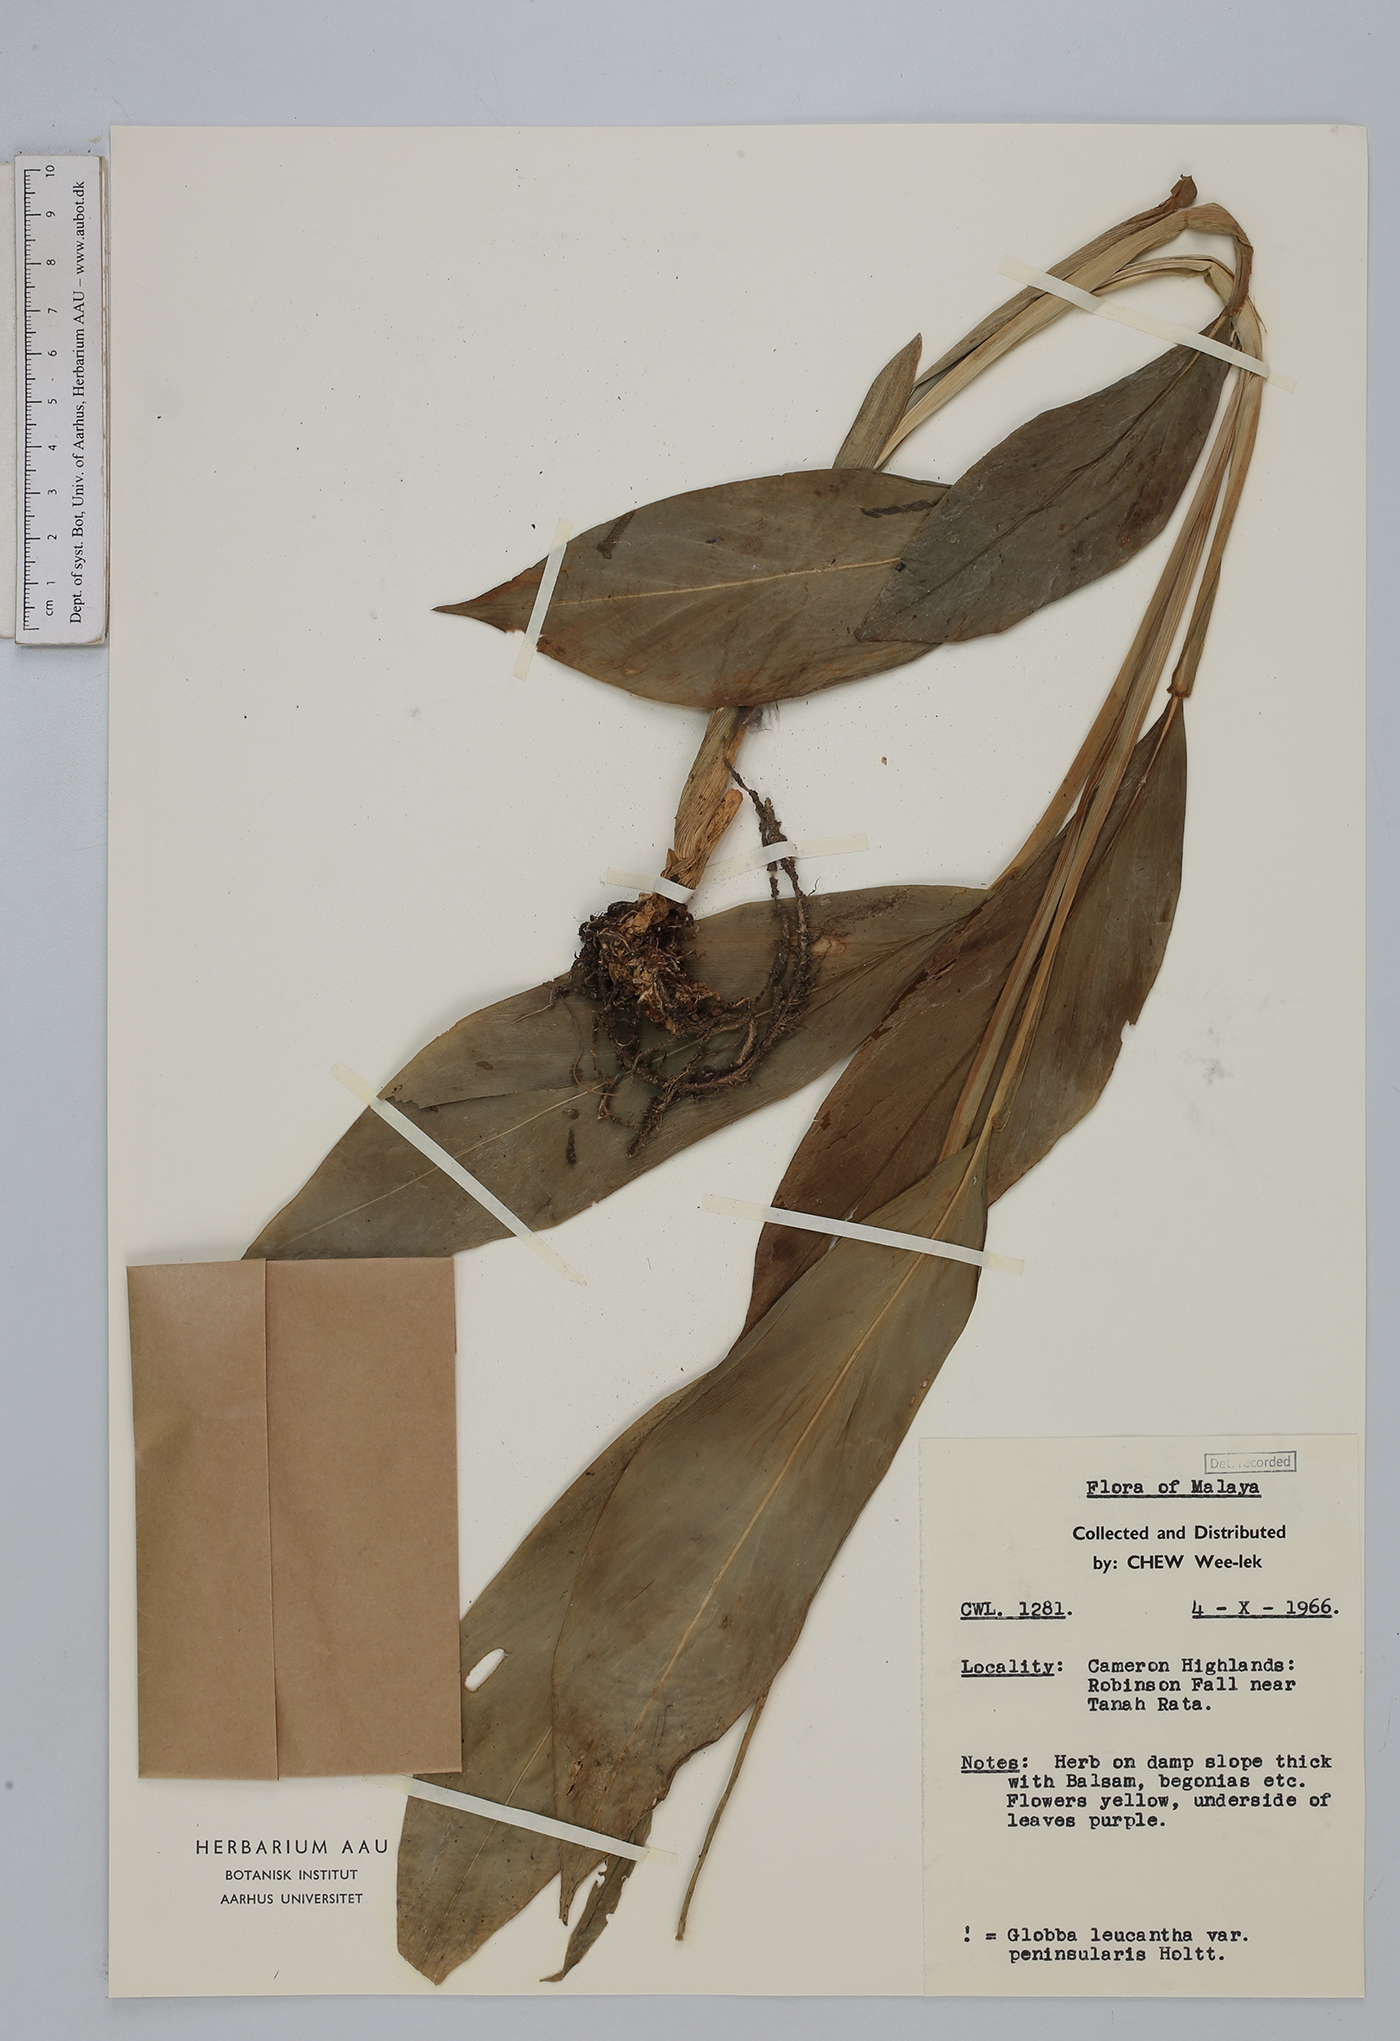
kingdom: Plantae
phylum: Tracheophyta
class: Liliopsida
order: Zingiberales
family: Zingiberaceae
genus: Globba
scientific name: Globba leucantha
